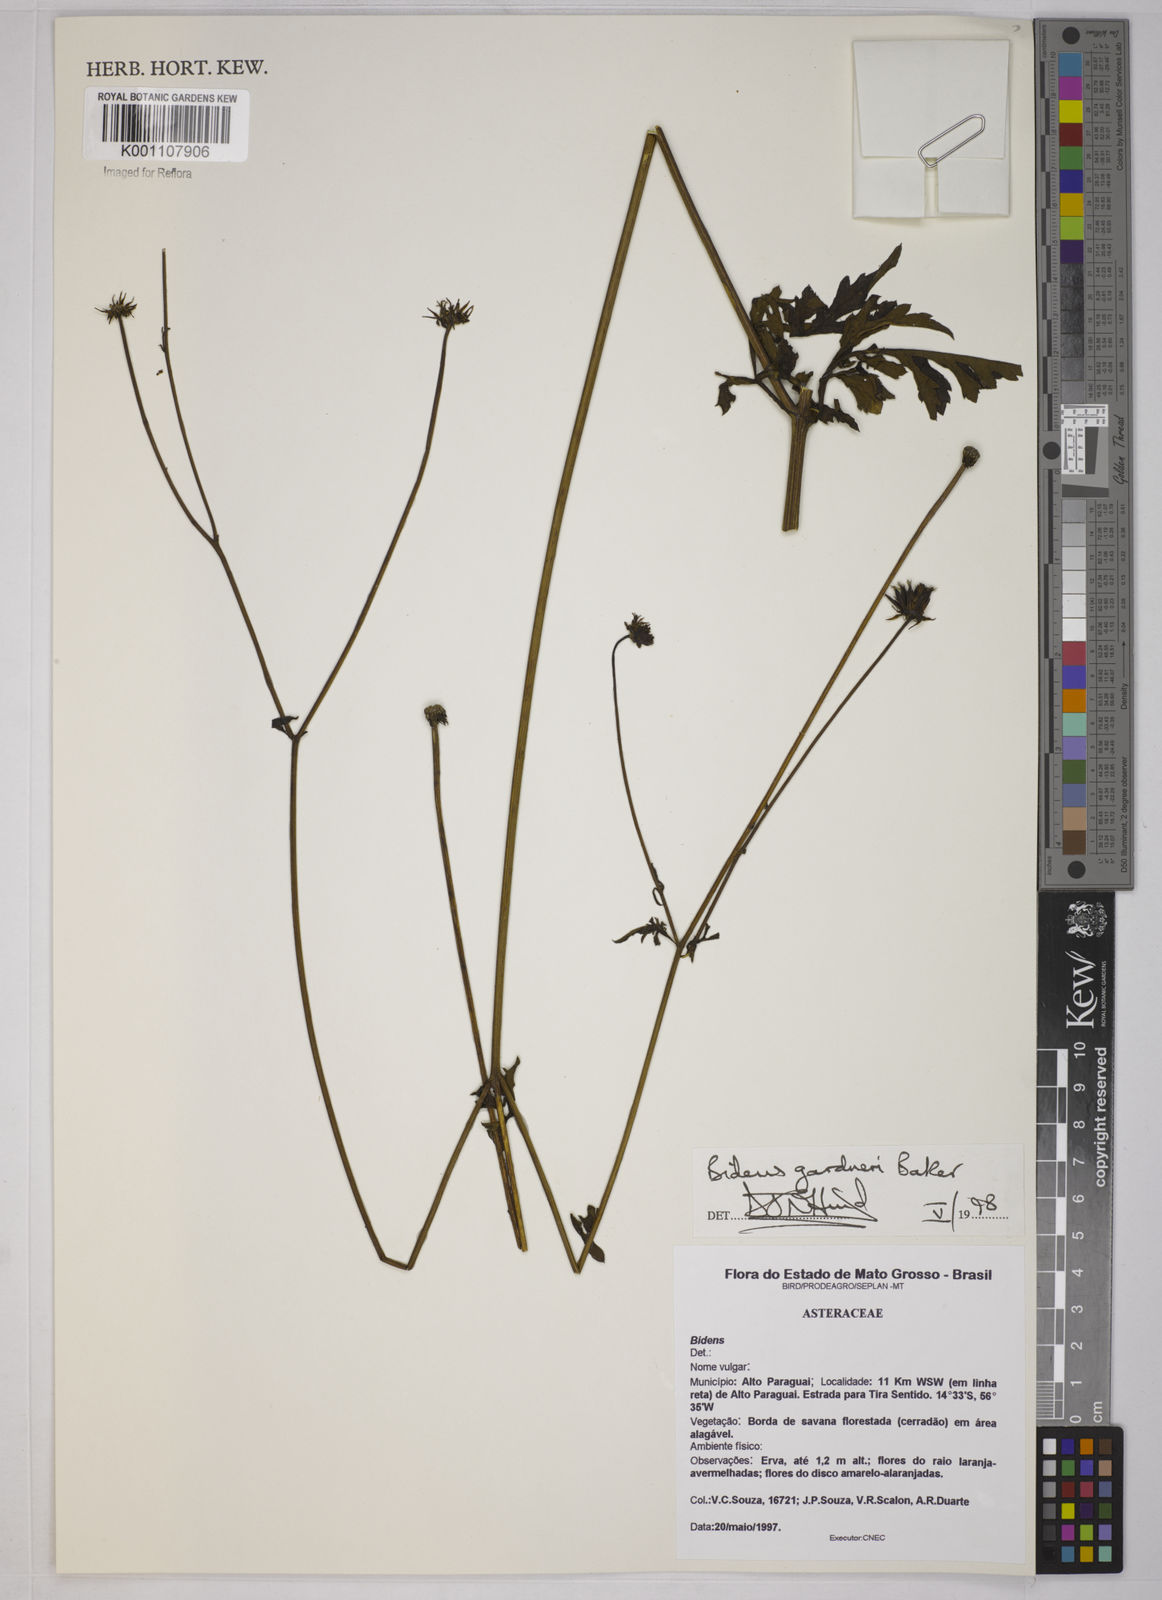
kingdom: Plantae
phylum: Tracheophyta
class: Magnoliopsida
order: Asterales
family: Asteraceae
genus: Bidens
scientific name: Bidens gardneri
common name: Ridge beggartick
